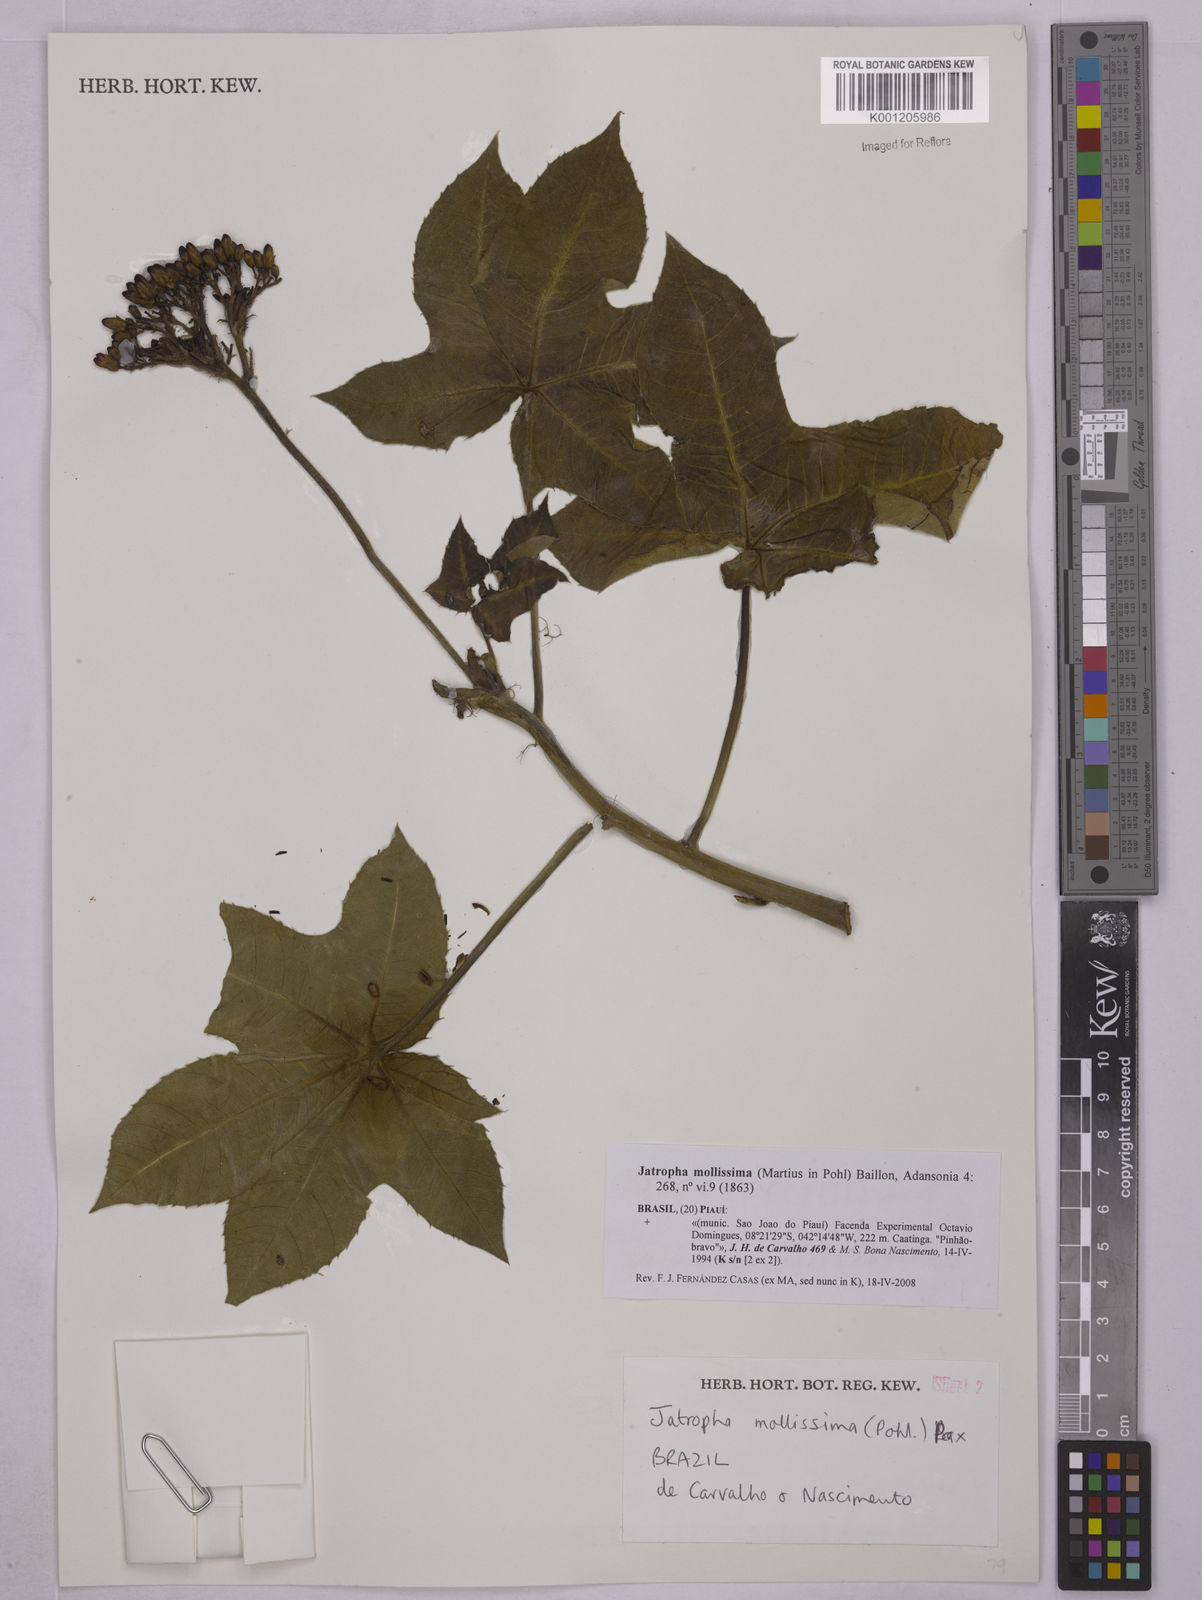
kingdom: Plantae
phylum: Tracheophyta
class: Magnoliopsida
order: Malpighiales
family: Euphorbiaceae
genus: Jatropha
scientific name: Jatropha mollissima
